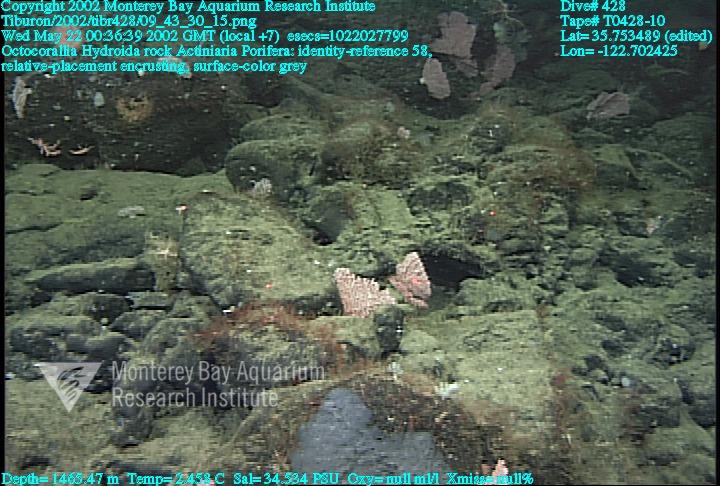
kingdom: Animalia
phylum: Porifera
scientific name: Porifera
